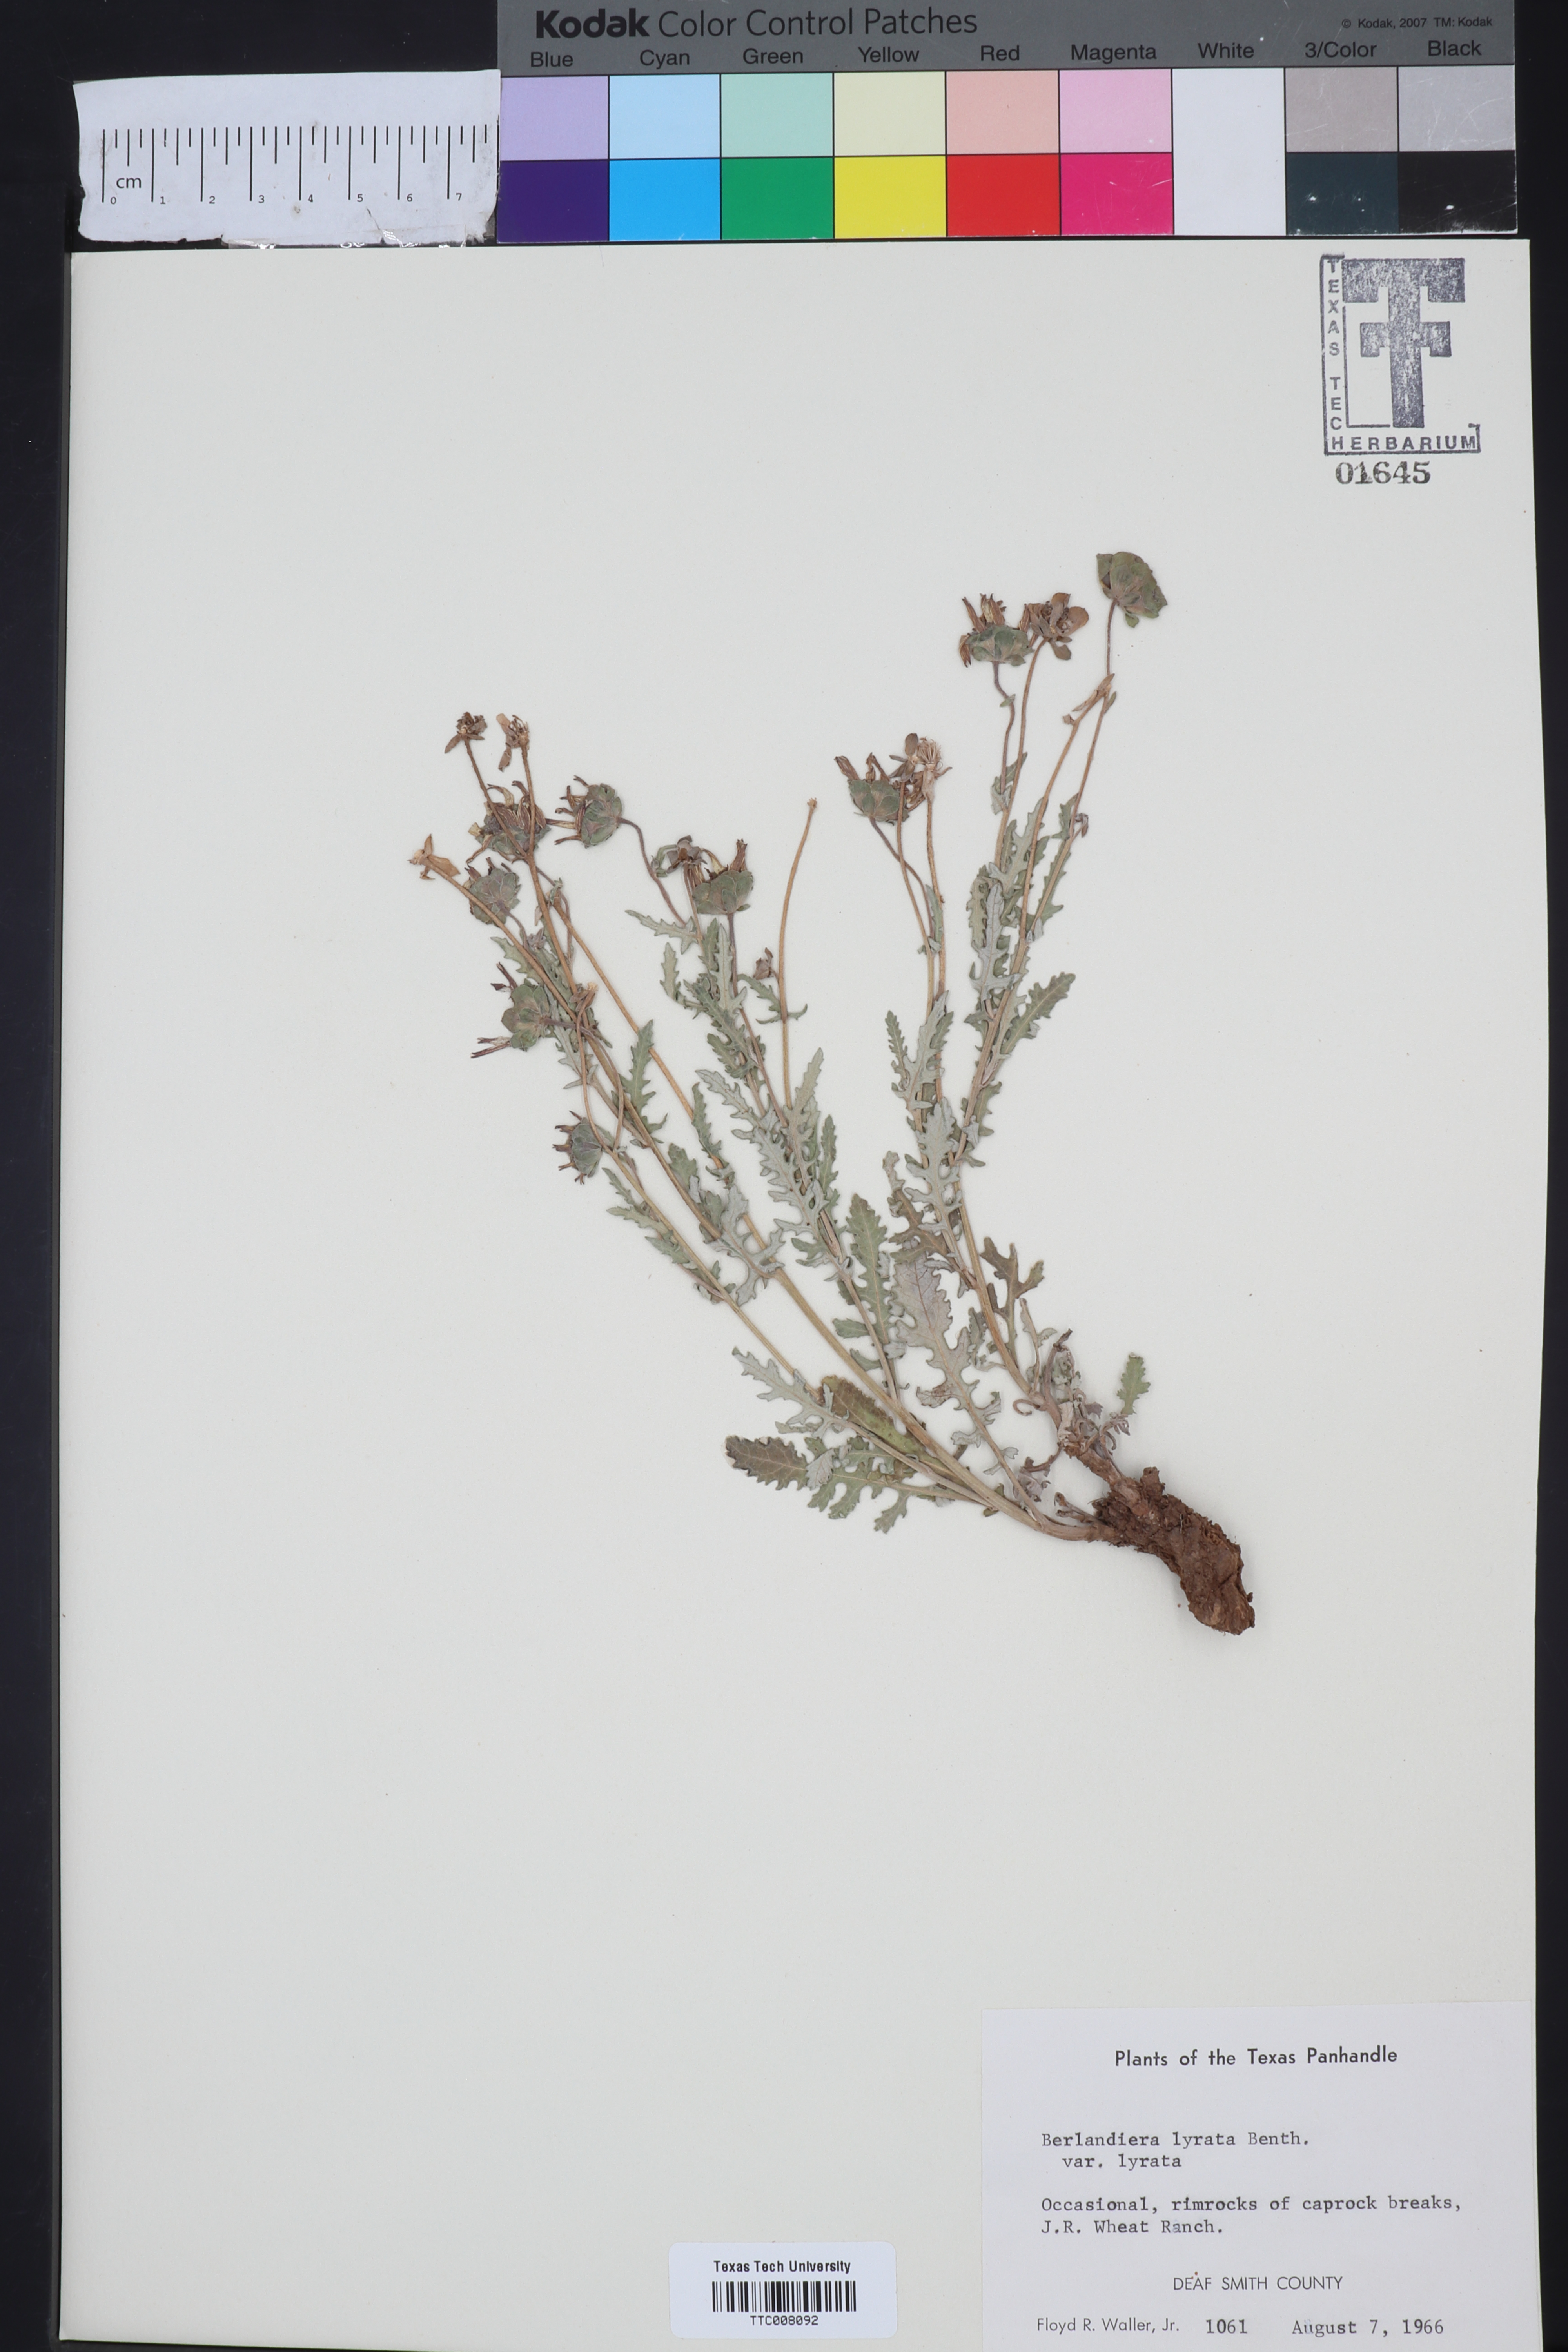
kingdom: Plantae
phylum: Tracheophyta
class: Magnoliopsida
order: Asterales
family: Asteraceae
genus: Berlandiera
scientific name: Berlandiera lyrata
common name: Chocolate-flower
